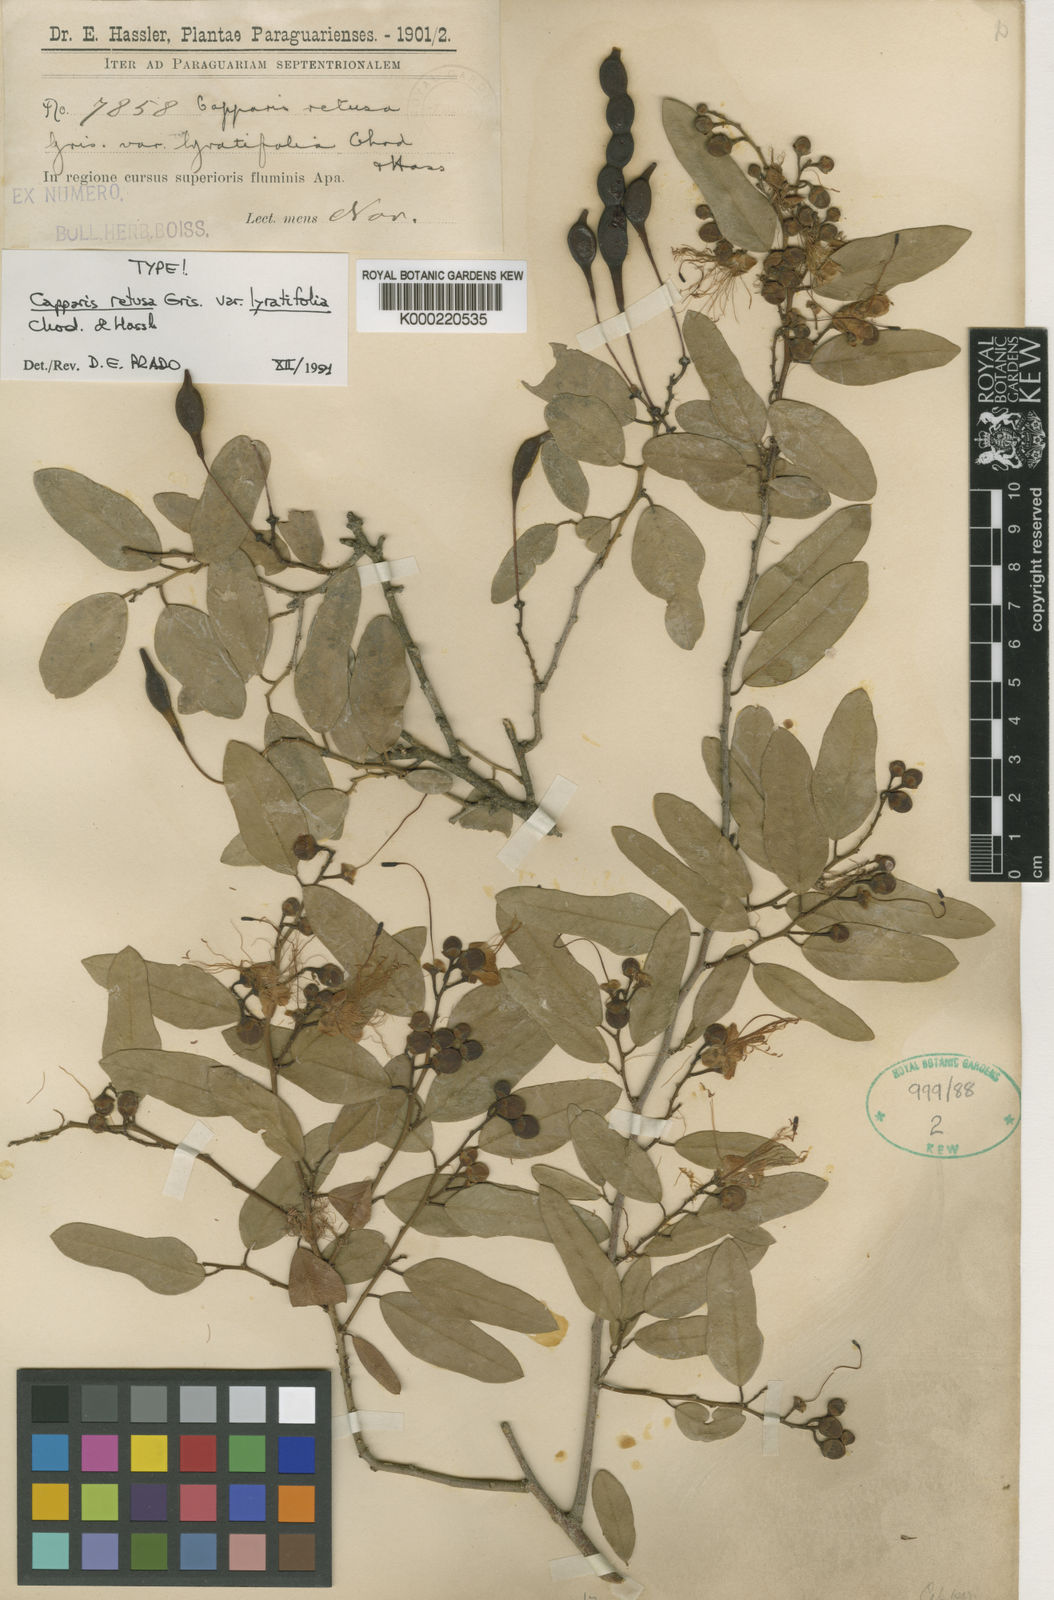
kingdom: Plantae
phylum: Tracheophyta
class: Magnoliopsida
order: Brassicales
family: Capparaceae
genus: Cynophalla
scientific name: Cynophalla retusa
